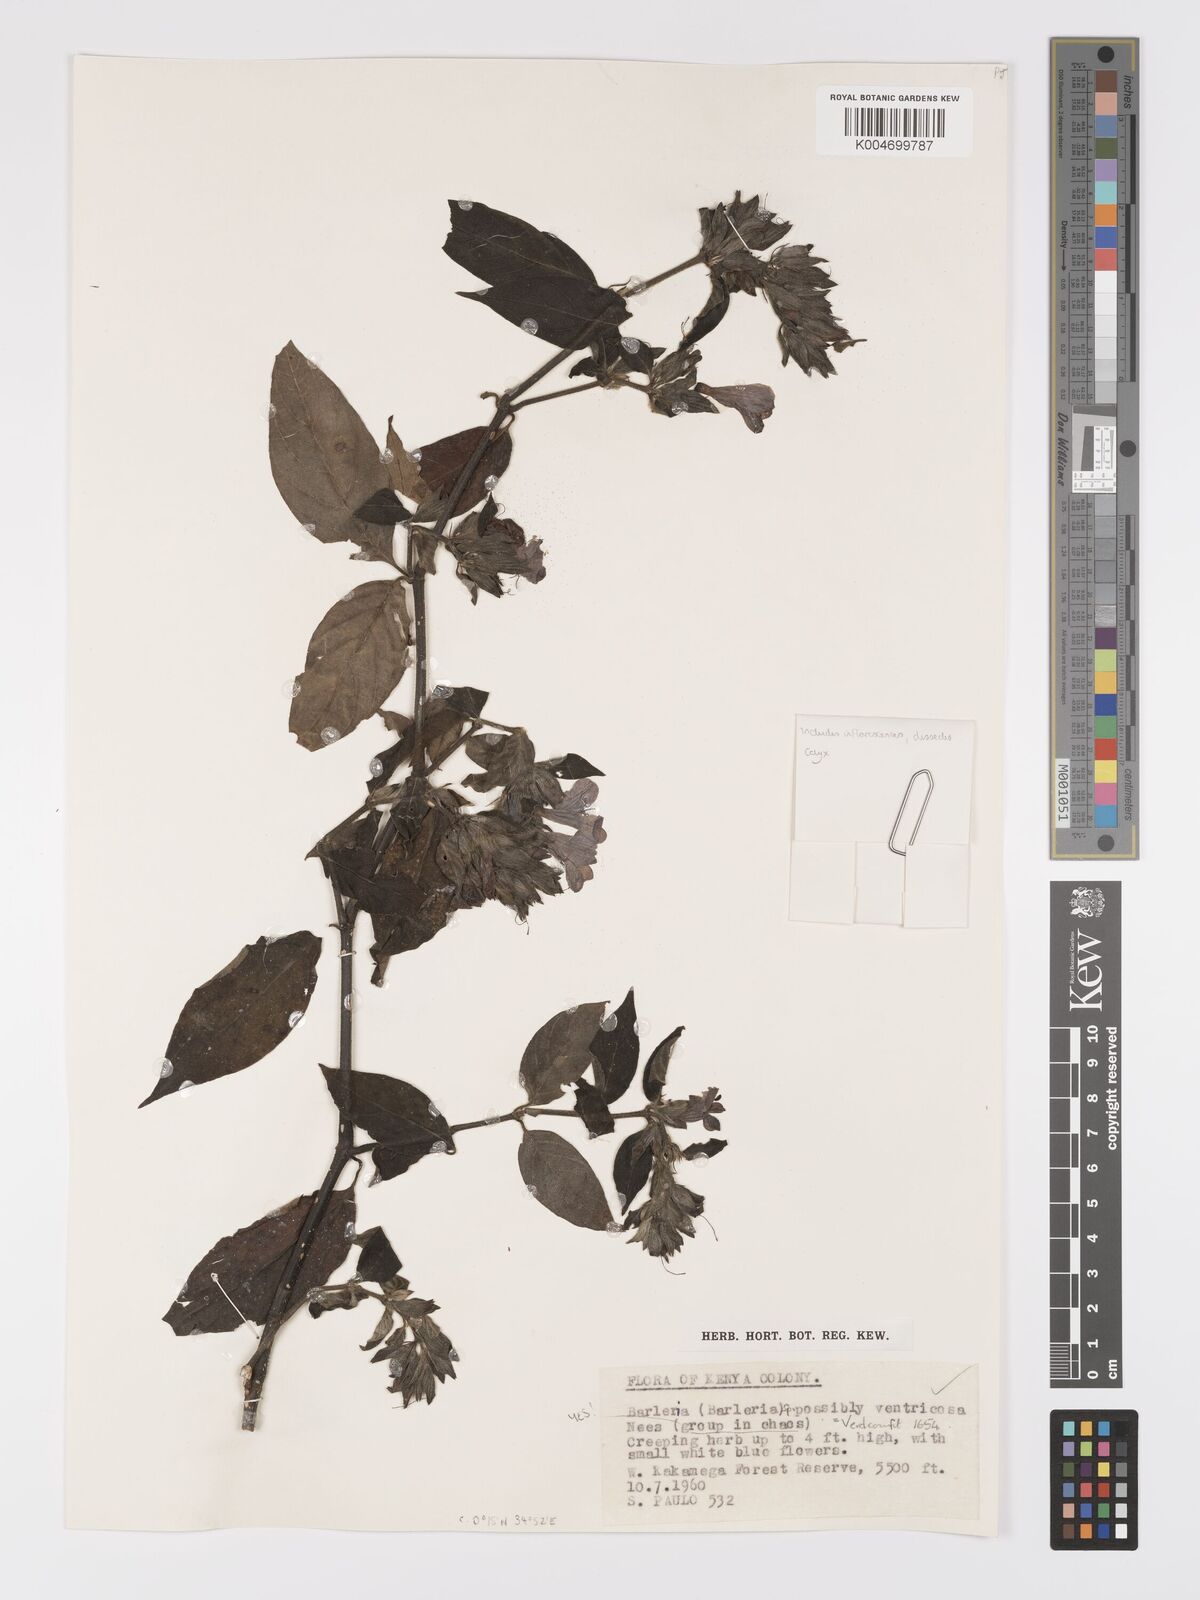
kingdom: Plantae
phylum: Tracheophyta
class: Magnoliopsida
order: Lamiales
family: Acanthaceae
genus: Barleria
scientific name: Barleria ventricosa
